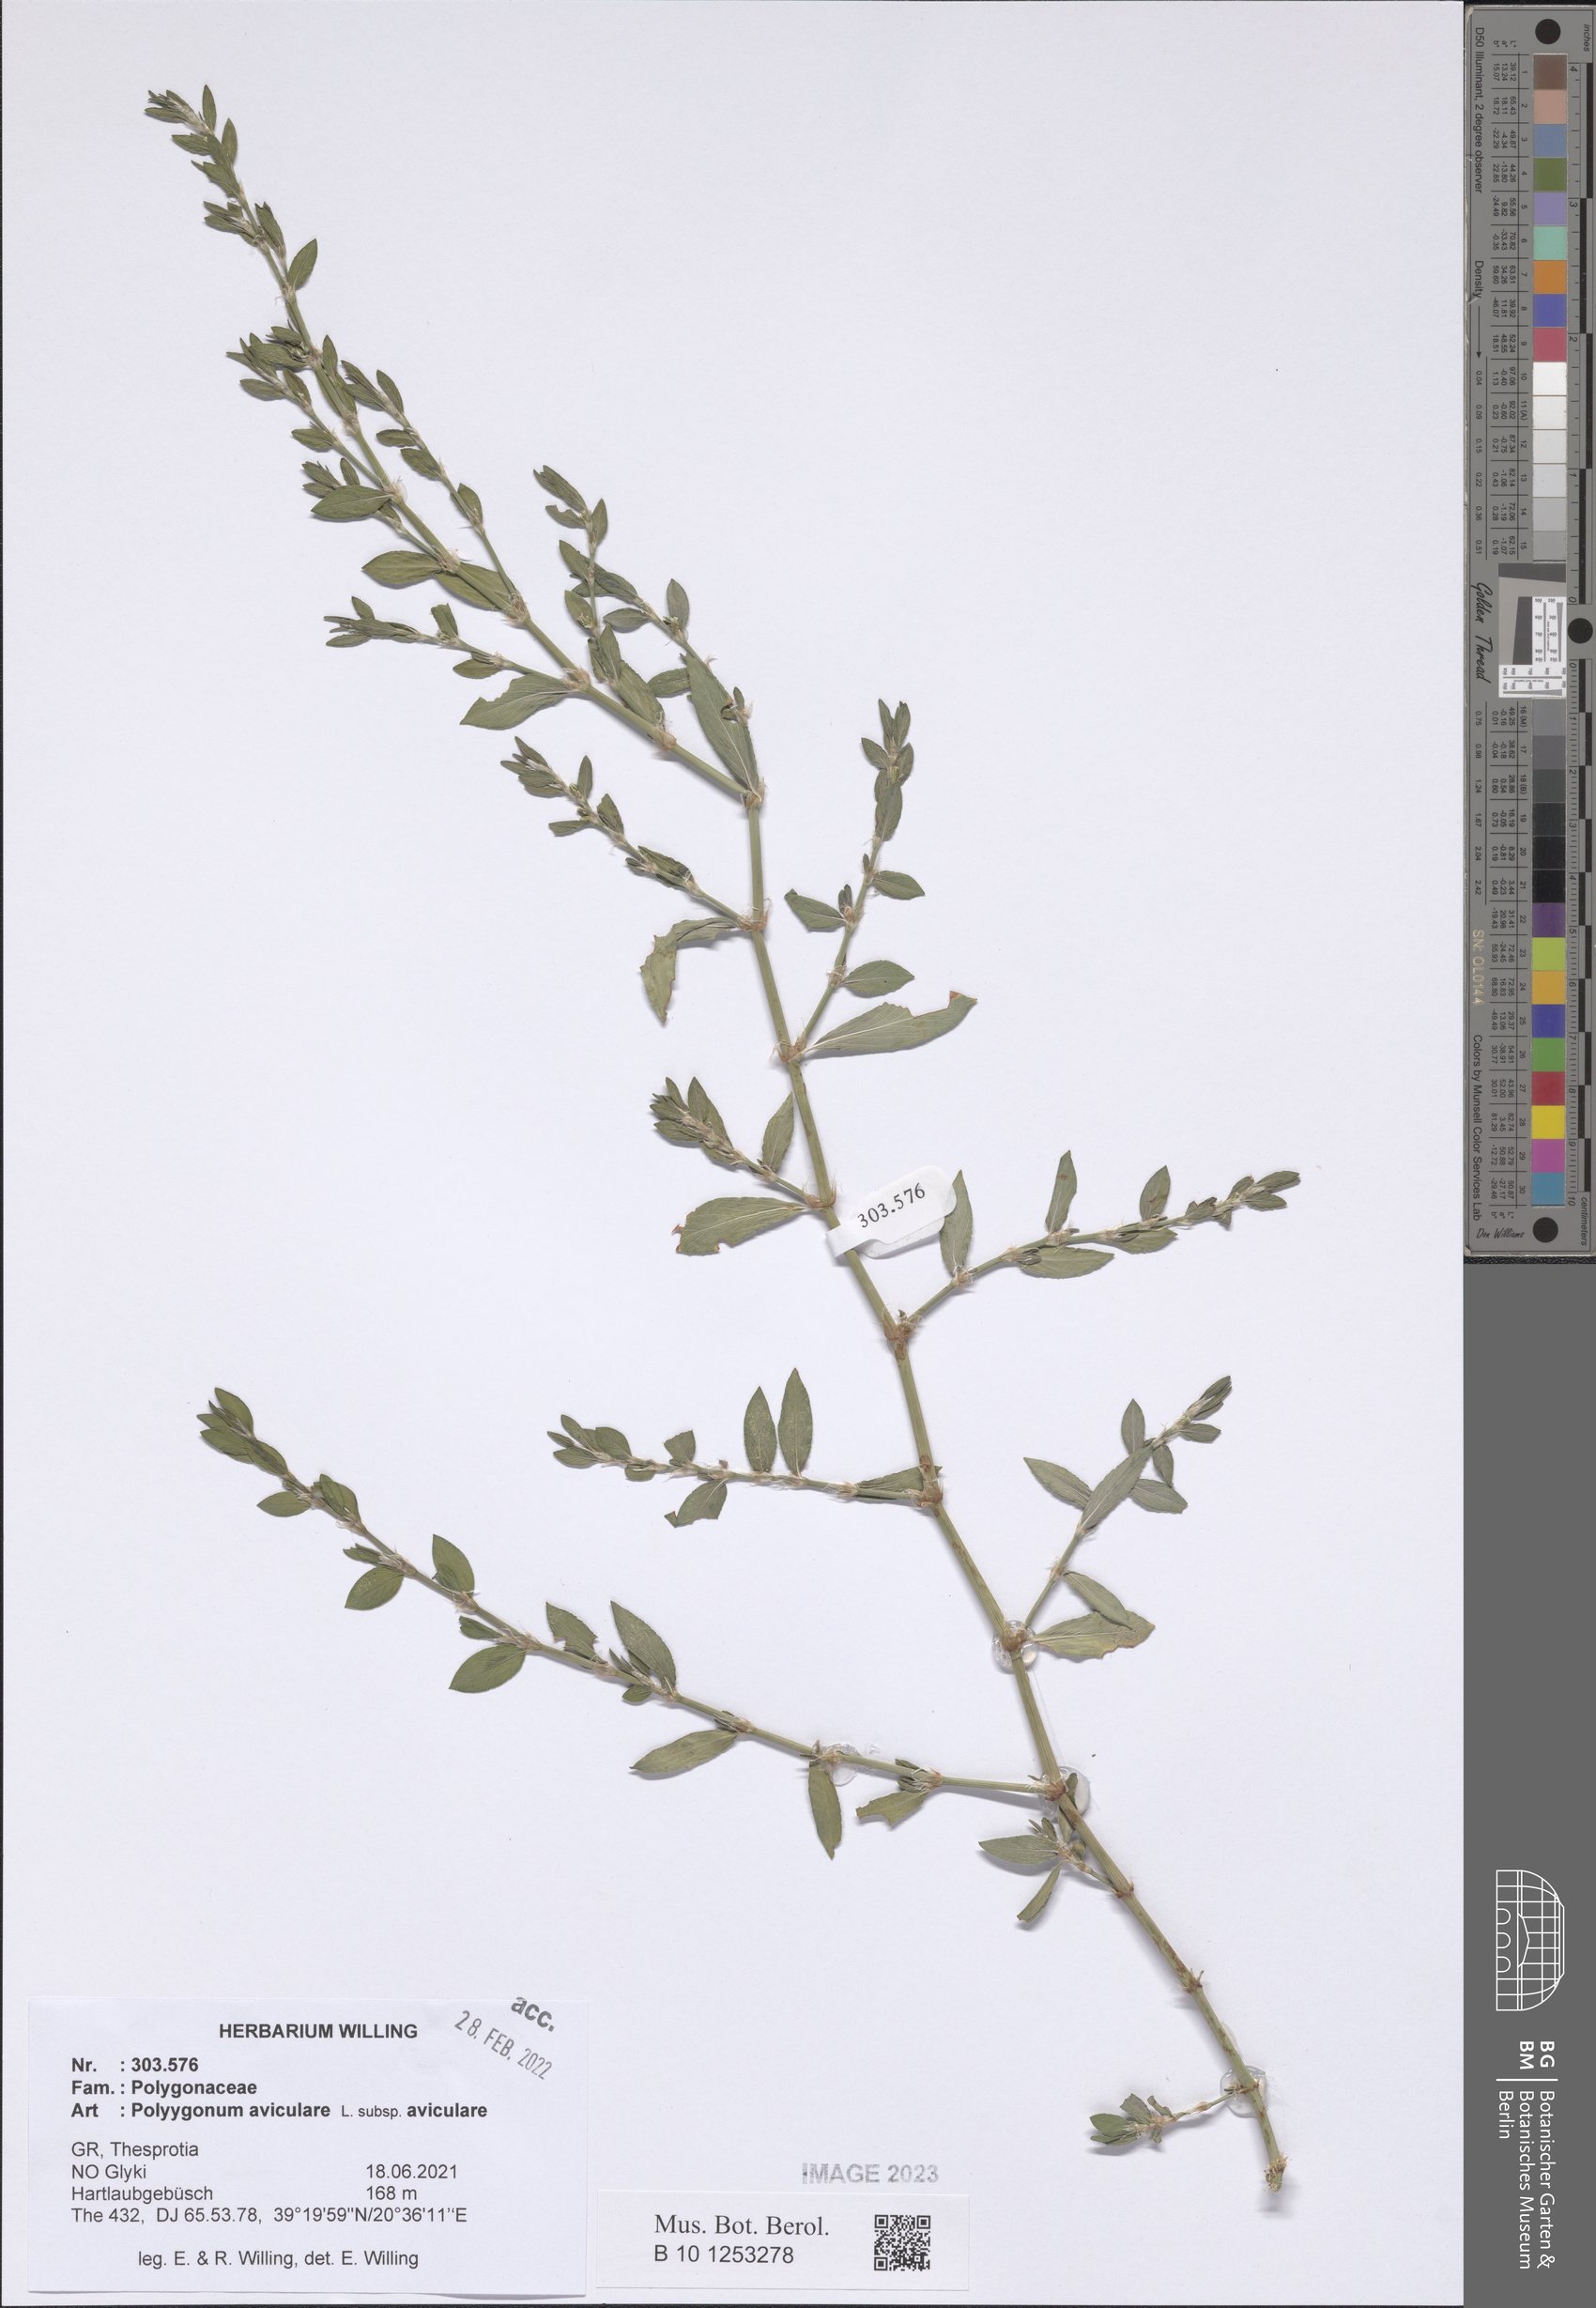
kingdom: Plantae
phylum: Tracheophyta
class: Magnoliopsida
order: Caryophyllales
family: Polygonaceae
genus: Polygonum
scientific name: Polygonum aviculare
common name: Prostrate knotweed
